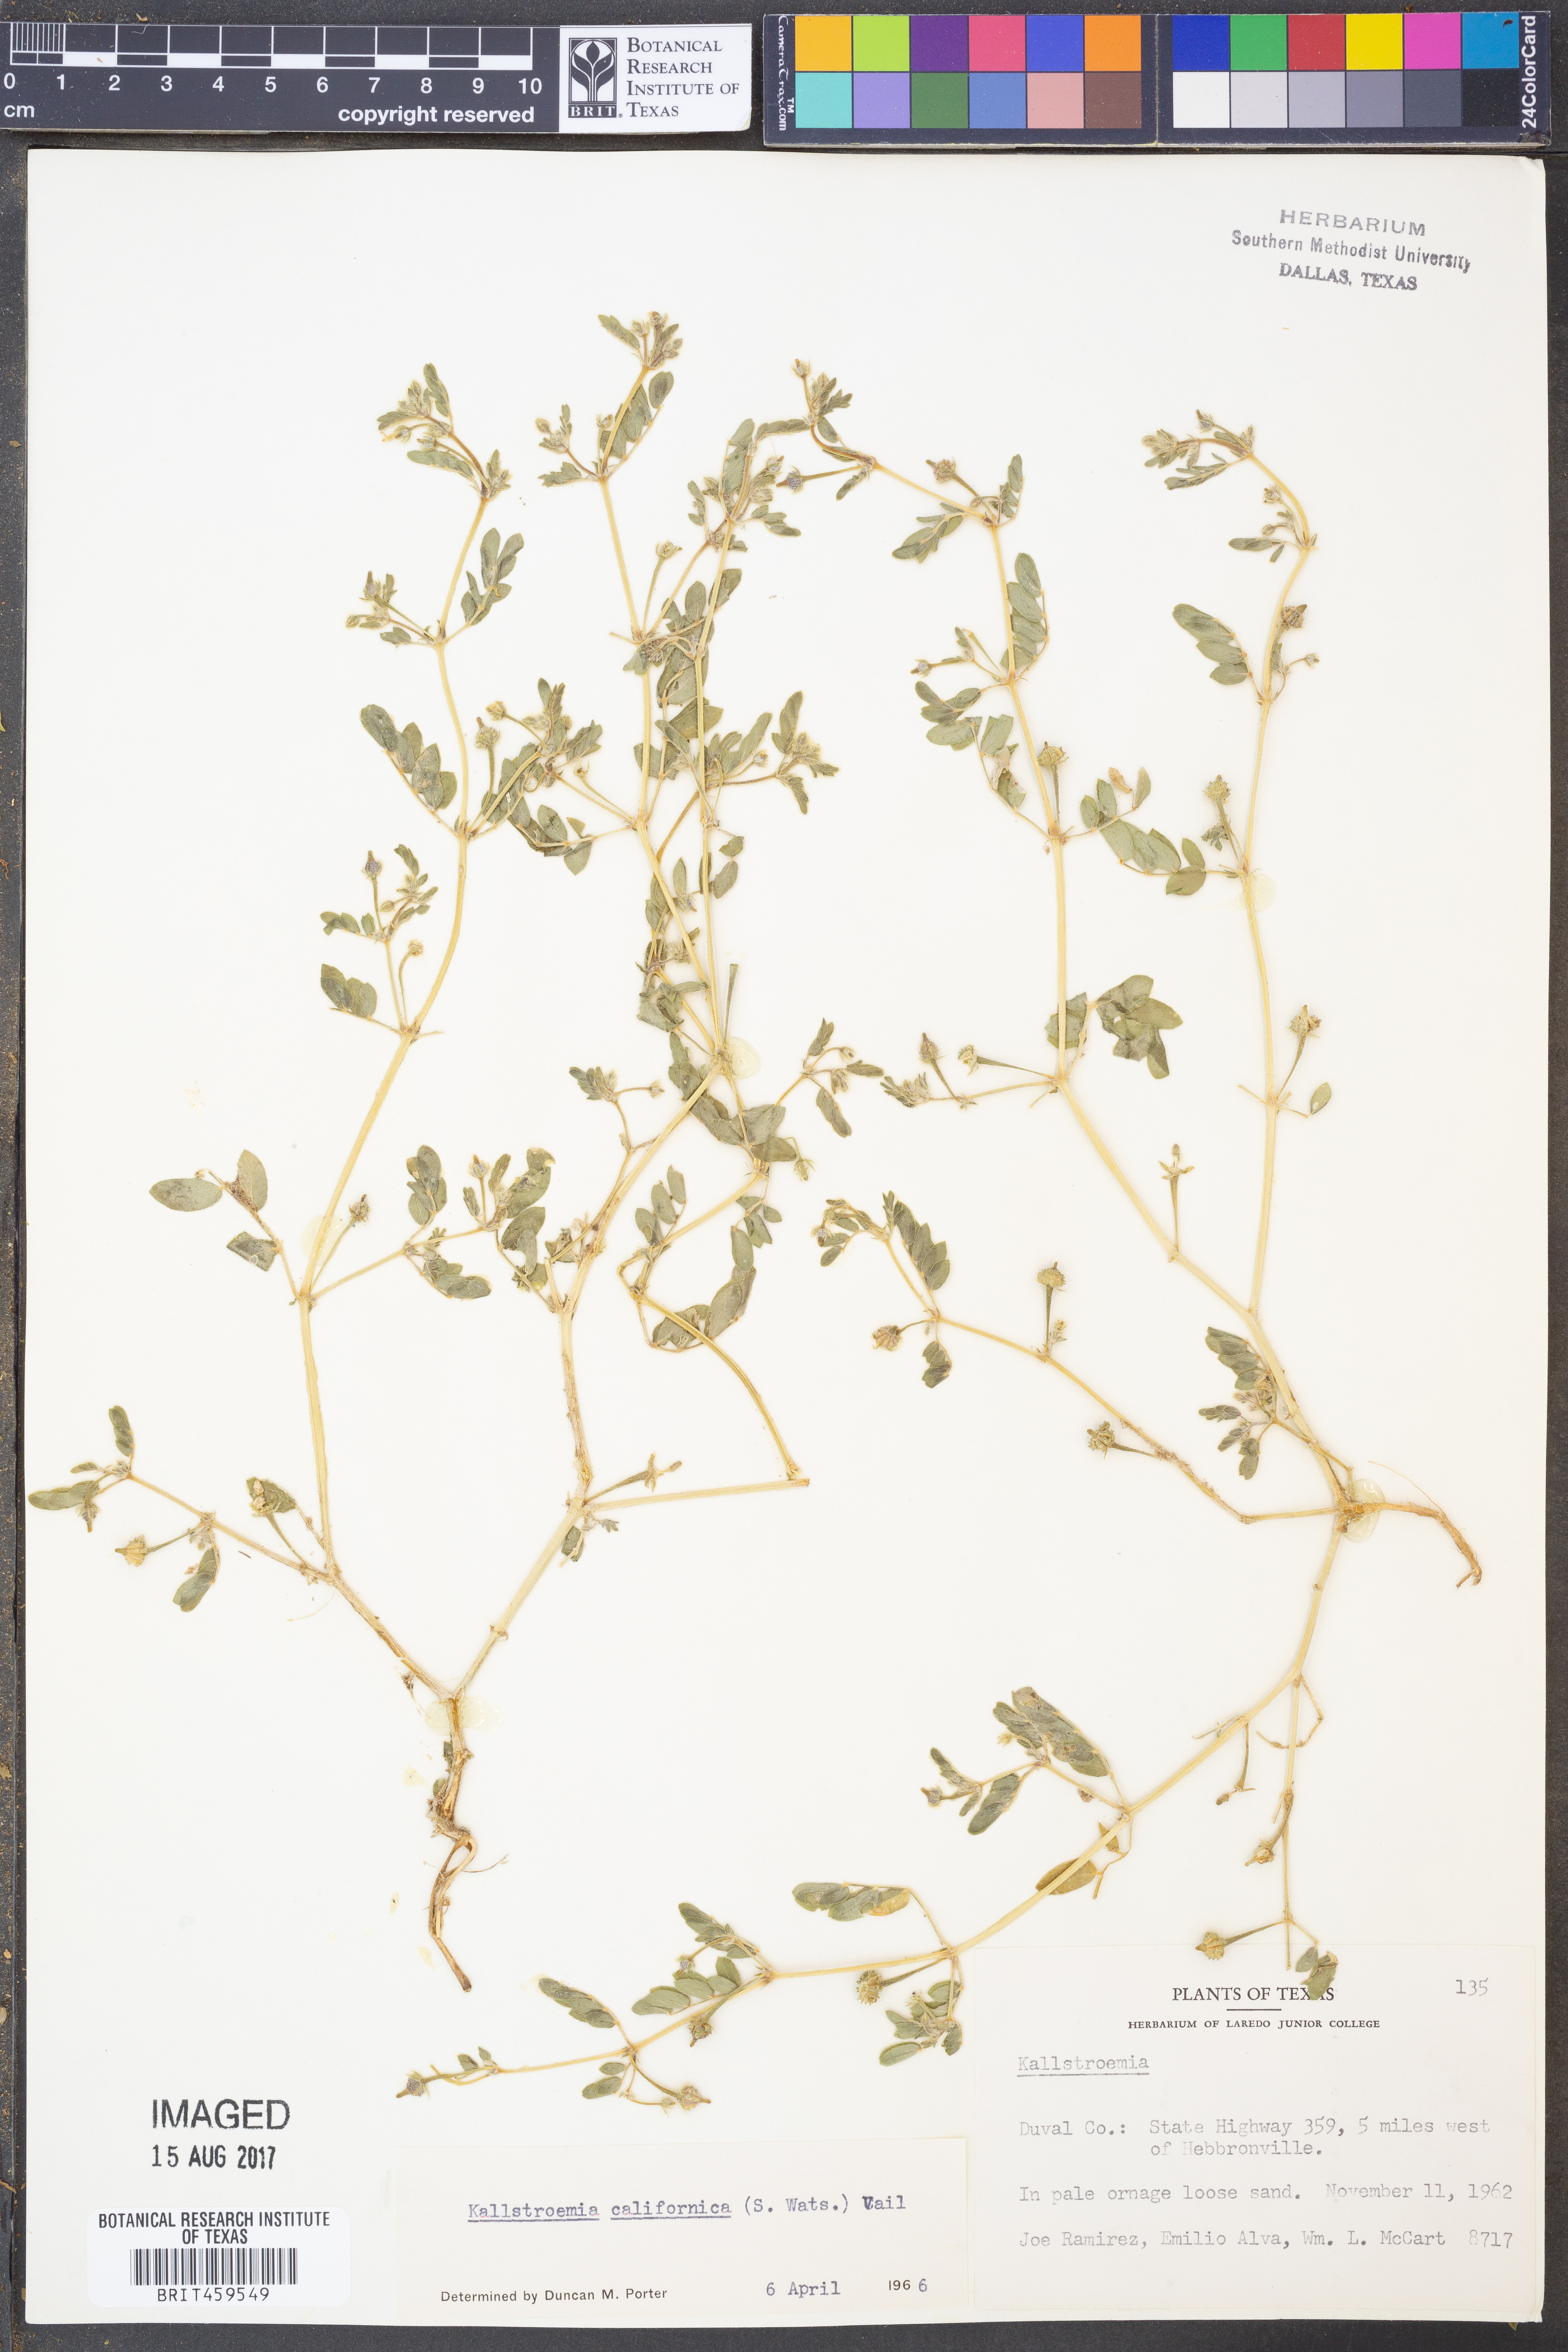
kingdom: Plantae
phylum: Tracheophyta
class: Magnoliopsida
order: Zygophyllales
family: Zygophyllaceae
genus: Kallstroemia
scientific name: Kallstroemia californica
